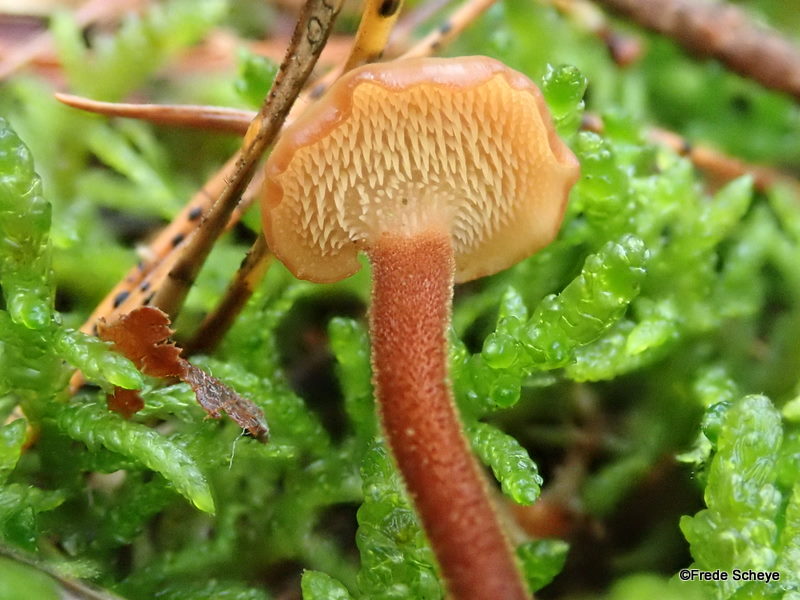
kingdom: Fungi
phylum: Basidiomycota
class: Agaricomycetes
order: Russulales
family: Auriscalpiaceae
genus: Auriscalpium
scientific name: Auriscalpium vulgare
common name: koglepigsvamp
